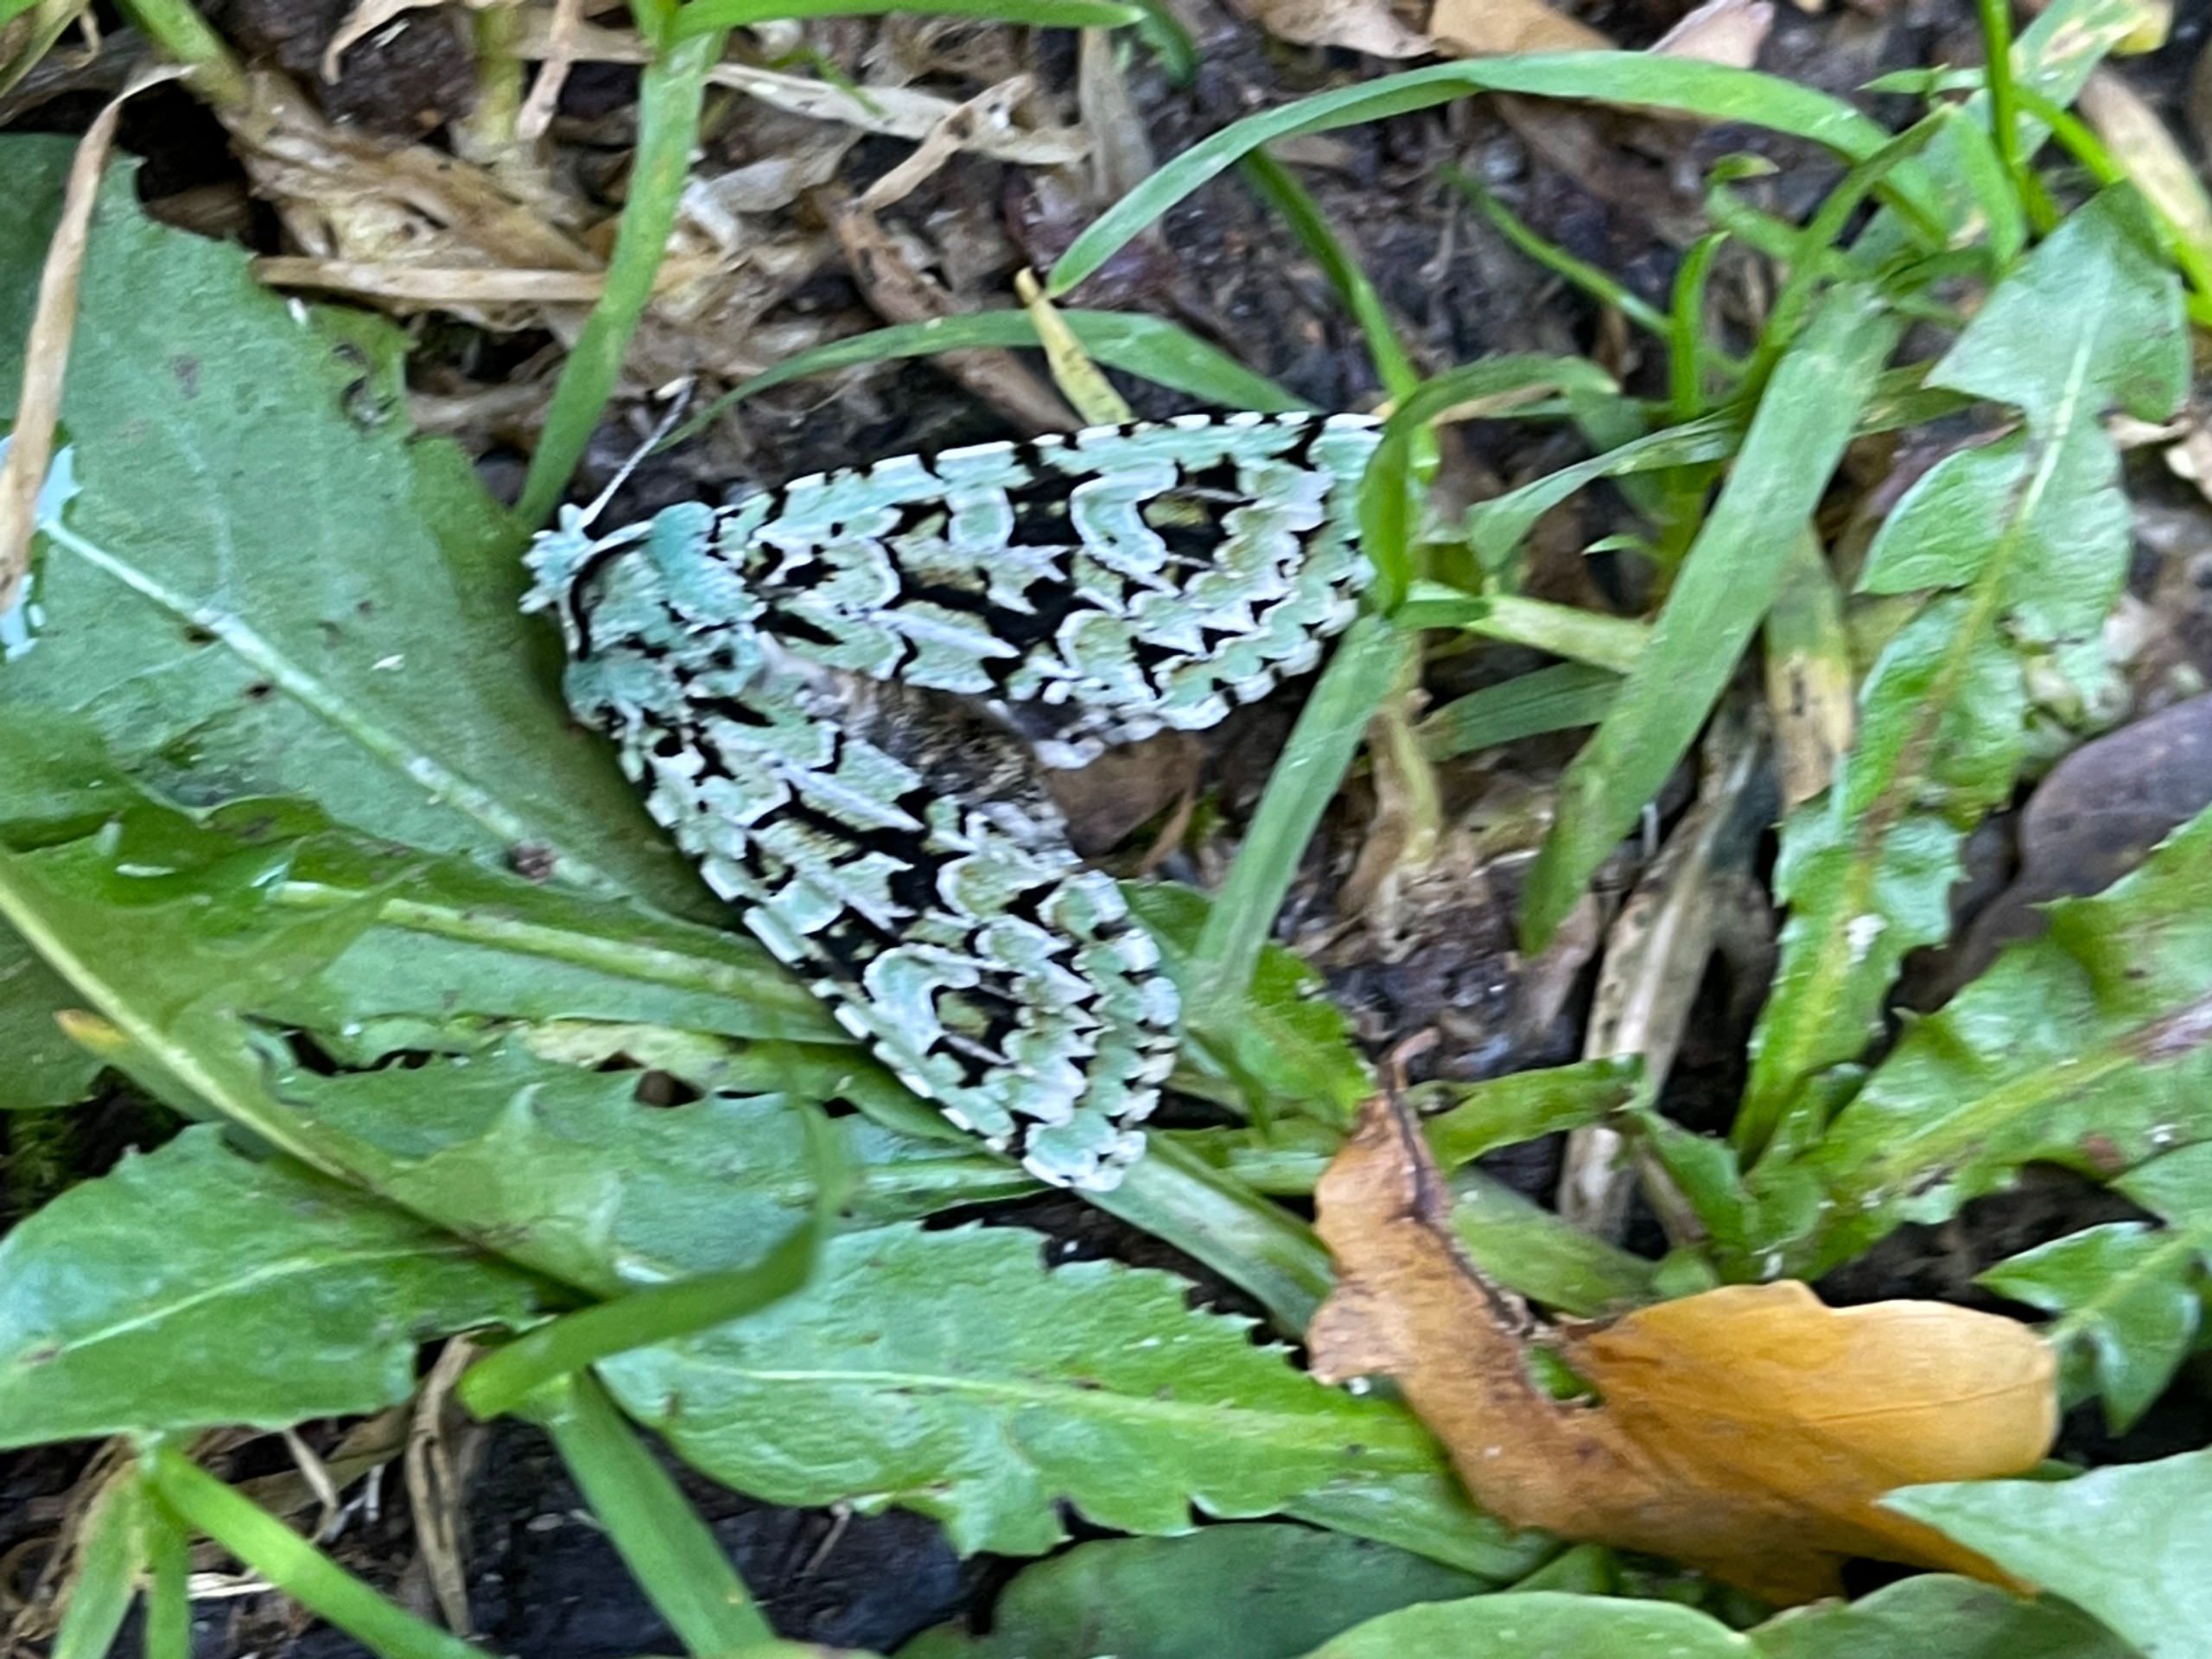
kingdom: Animalia
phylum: Arthropoda
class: Insecta
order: Lepidoptera
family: Noctuidae
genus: Griposia
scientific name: Griposia aprilina
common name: Aprilugle
